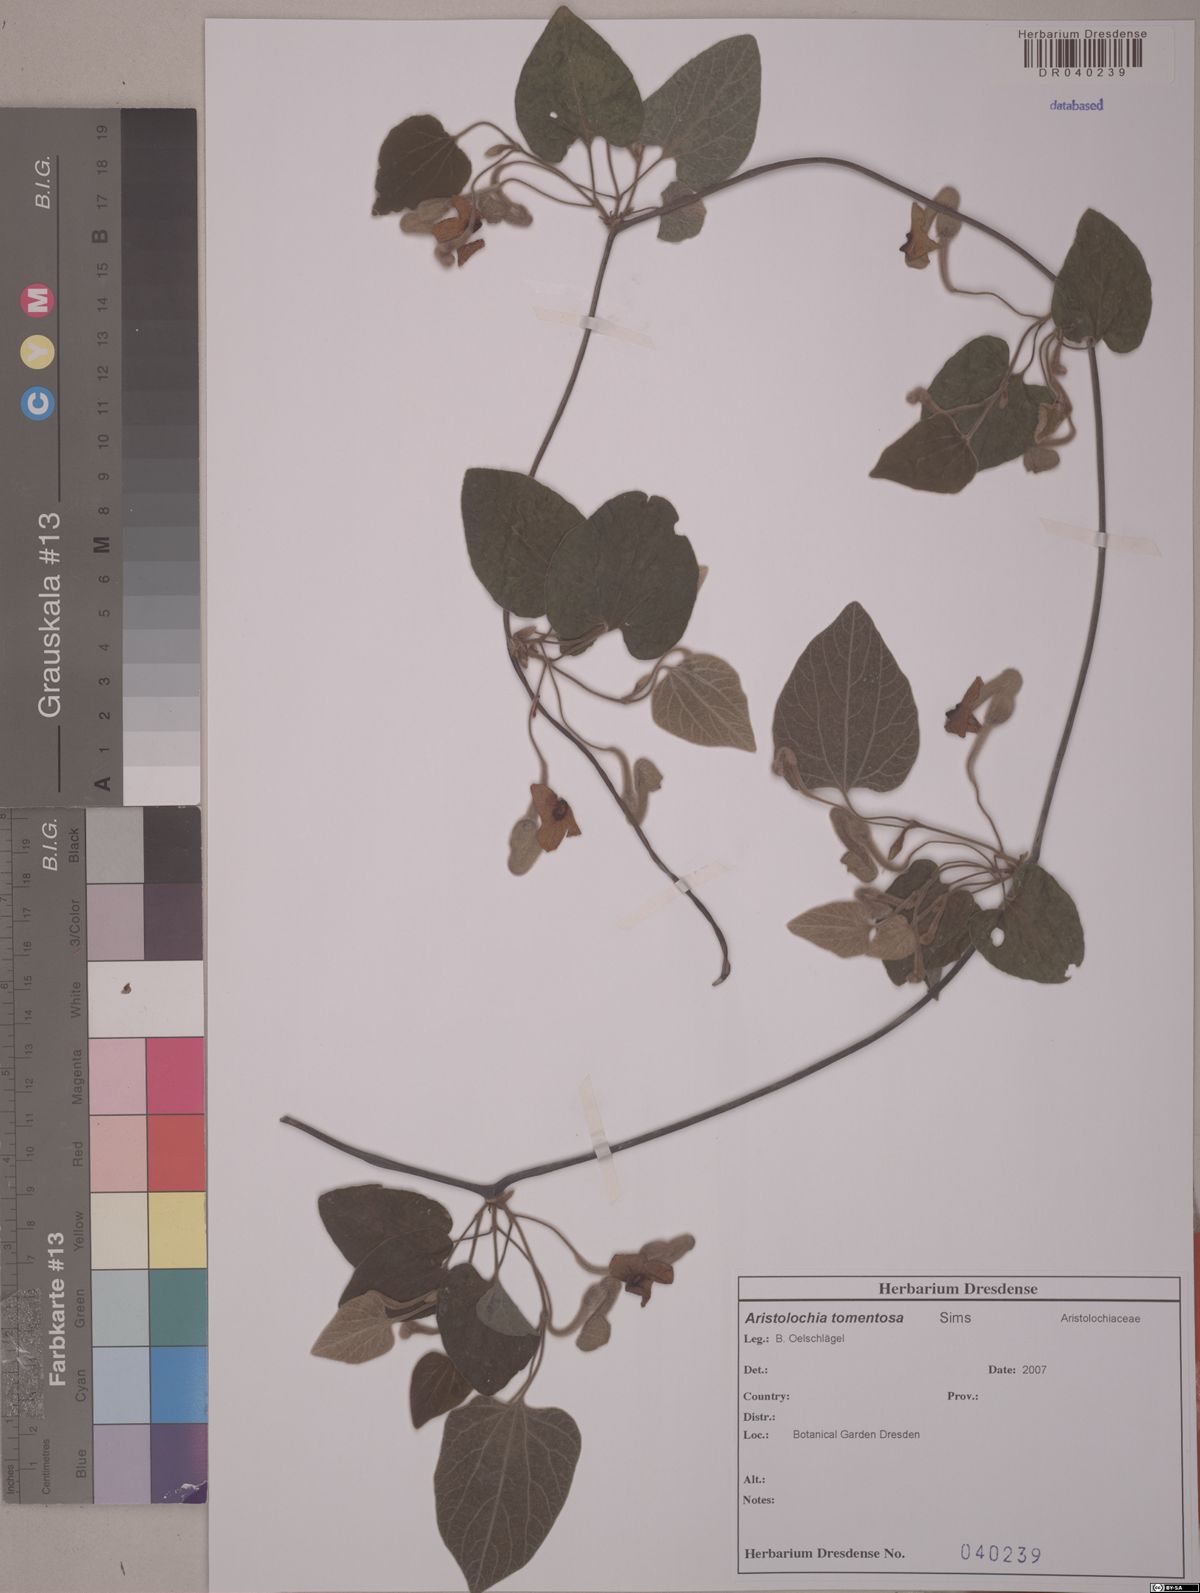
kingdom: Plantae
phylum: Tracheophyta
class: Magnoliopsida
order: Piperales
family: Aristolochiaceae
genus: Isotrema
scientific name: Isotrema tomentosum
